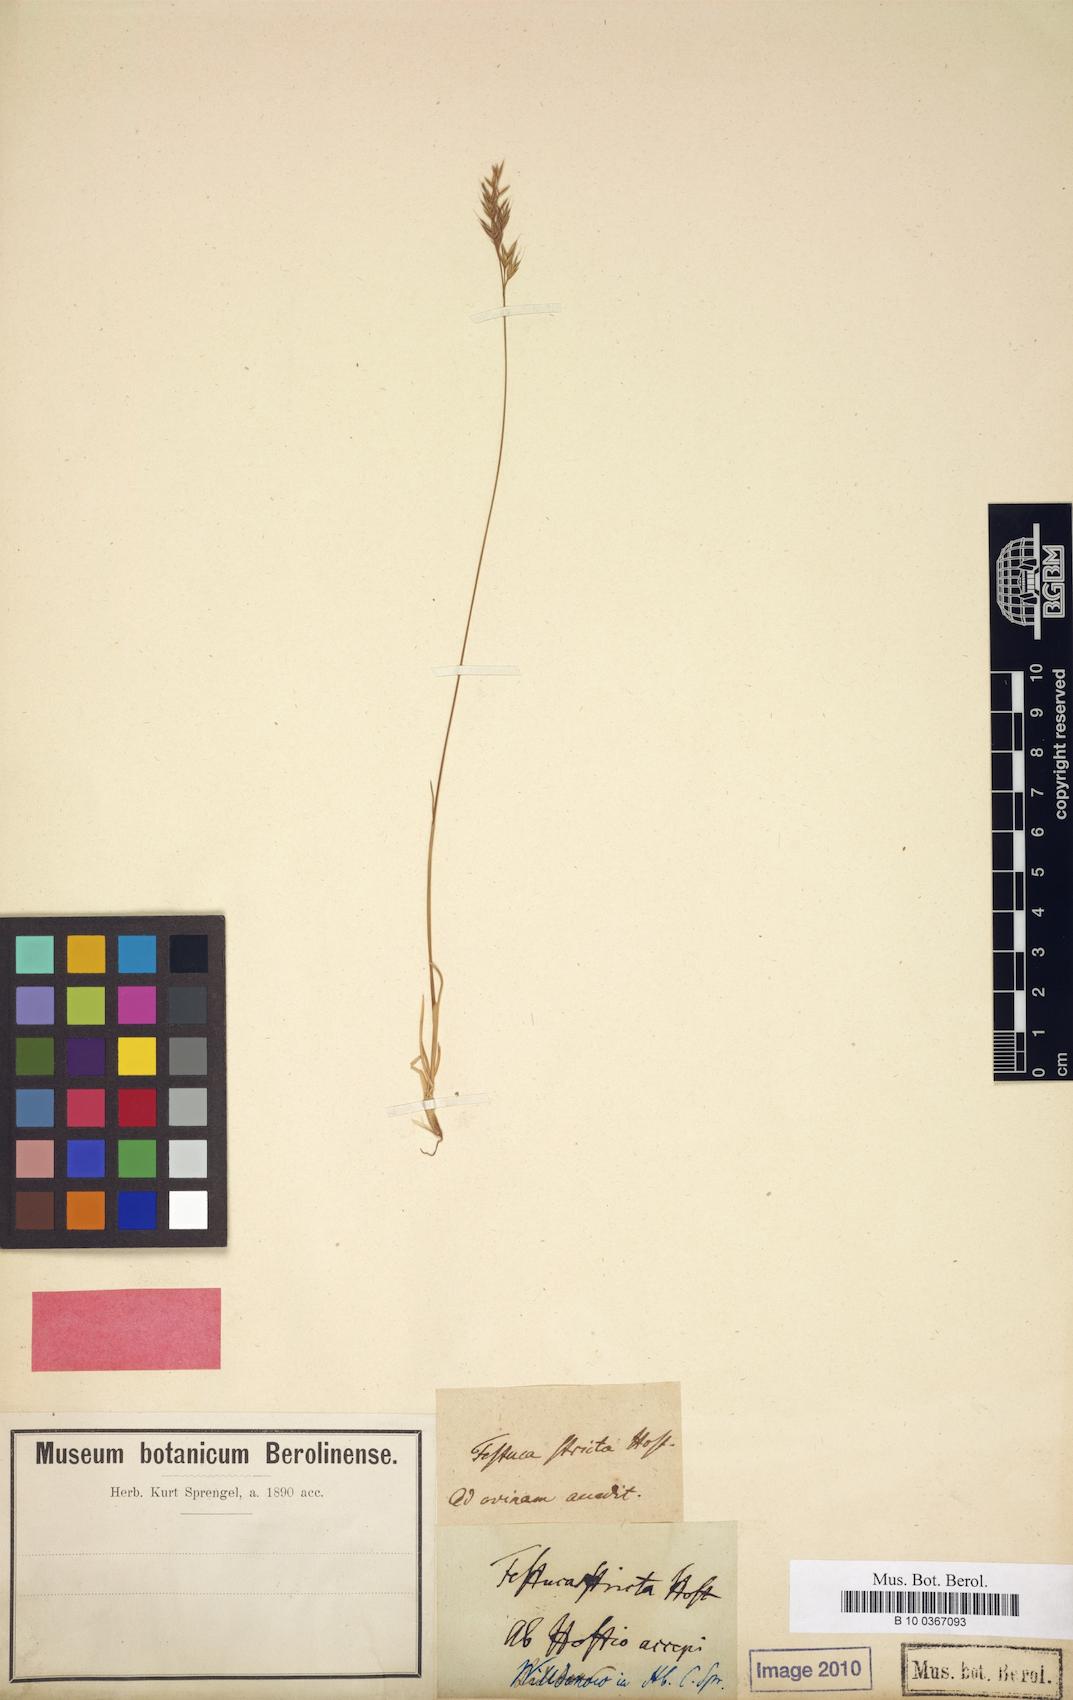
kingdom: Plantae
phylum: Tracheophyta
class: Liliopsida
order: Poales
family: Poaceae
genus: Festuca
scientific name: Festuca stricta
